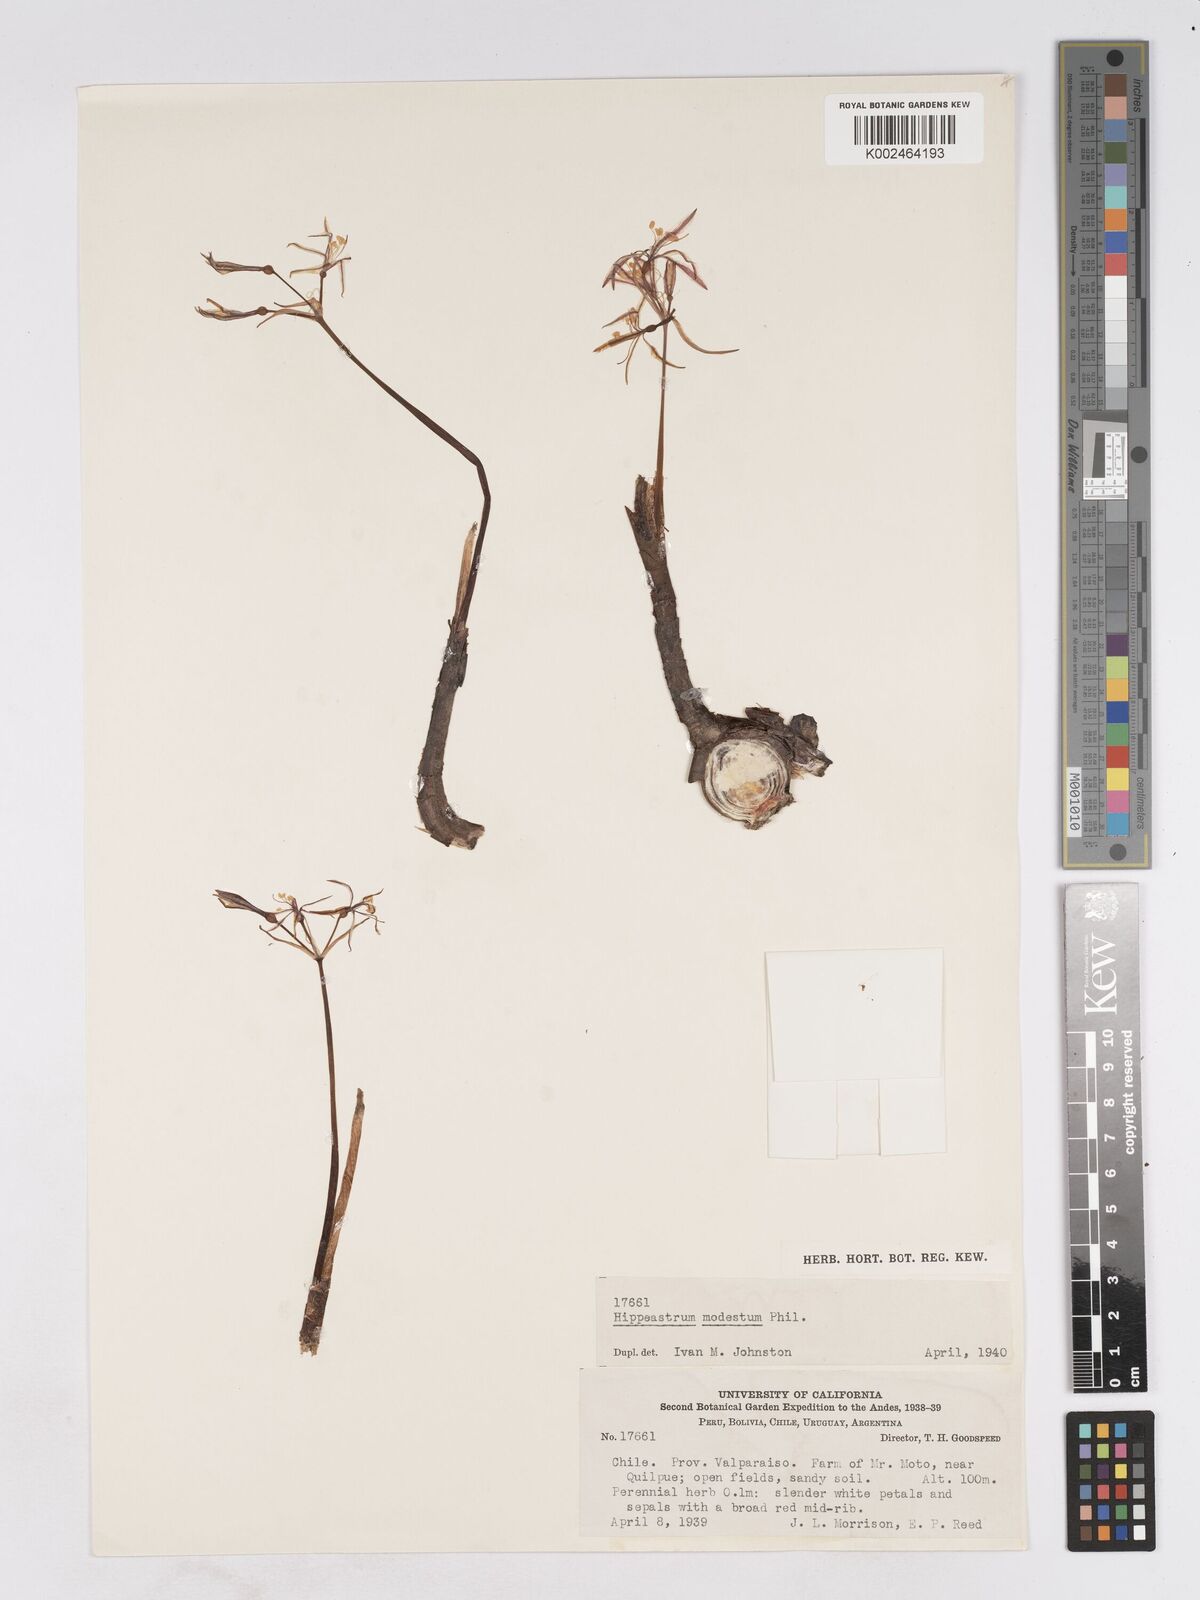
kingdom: Plantae
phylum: Tracheophyta
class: Liliopsida
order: Asparagales
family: Amaryllidaceae
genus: Traubia
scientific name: Traubia modesta
